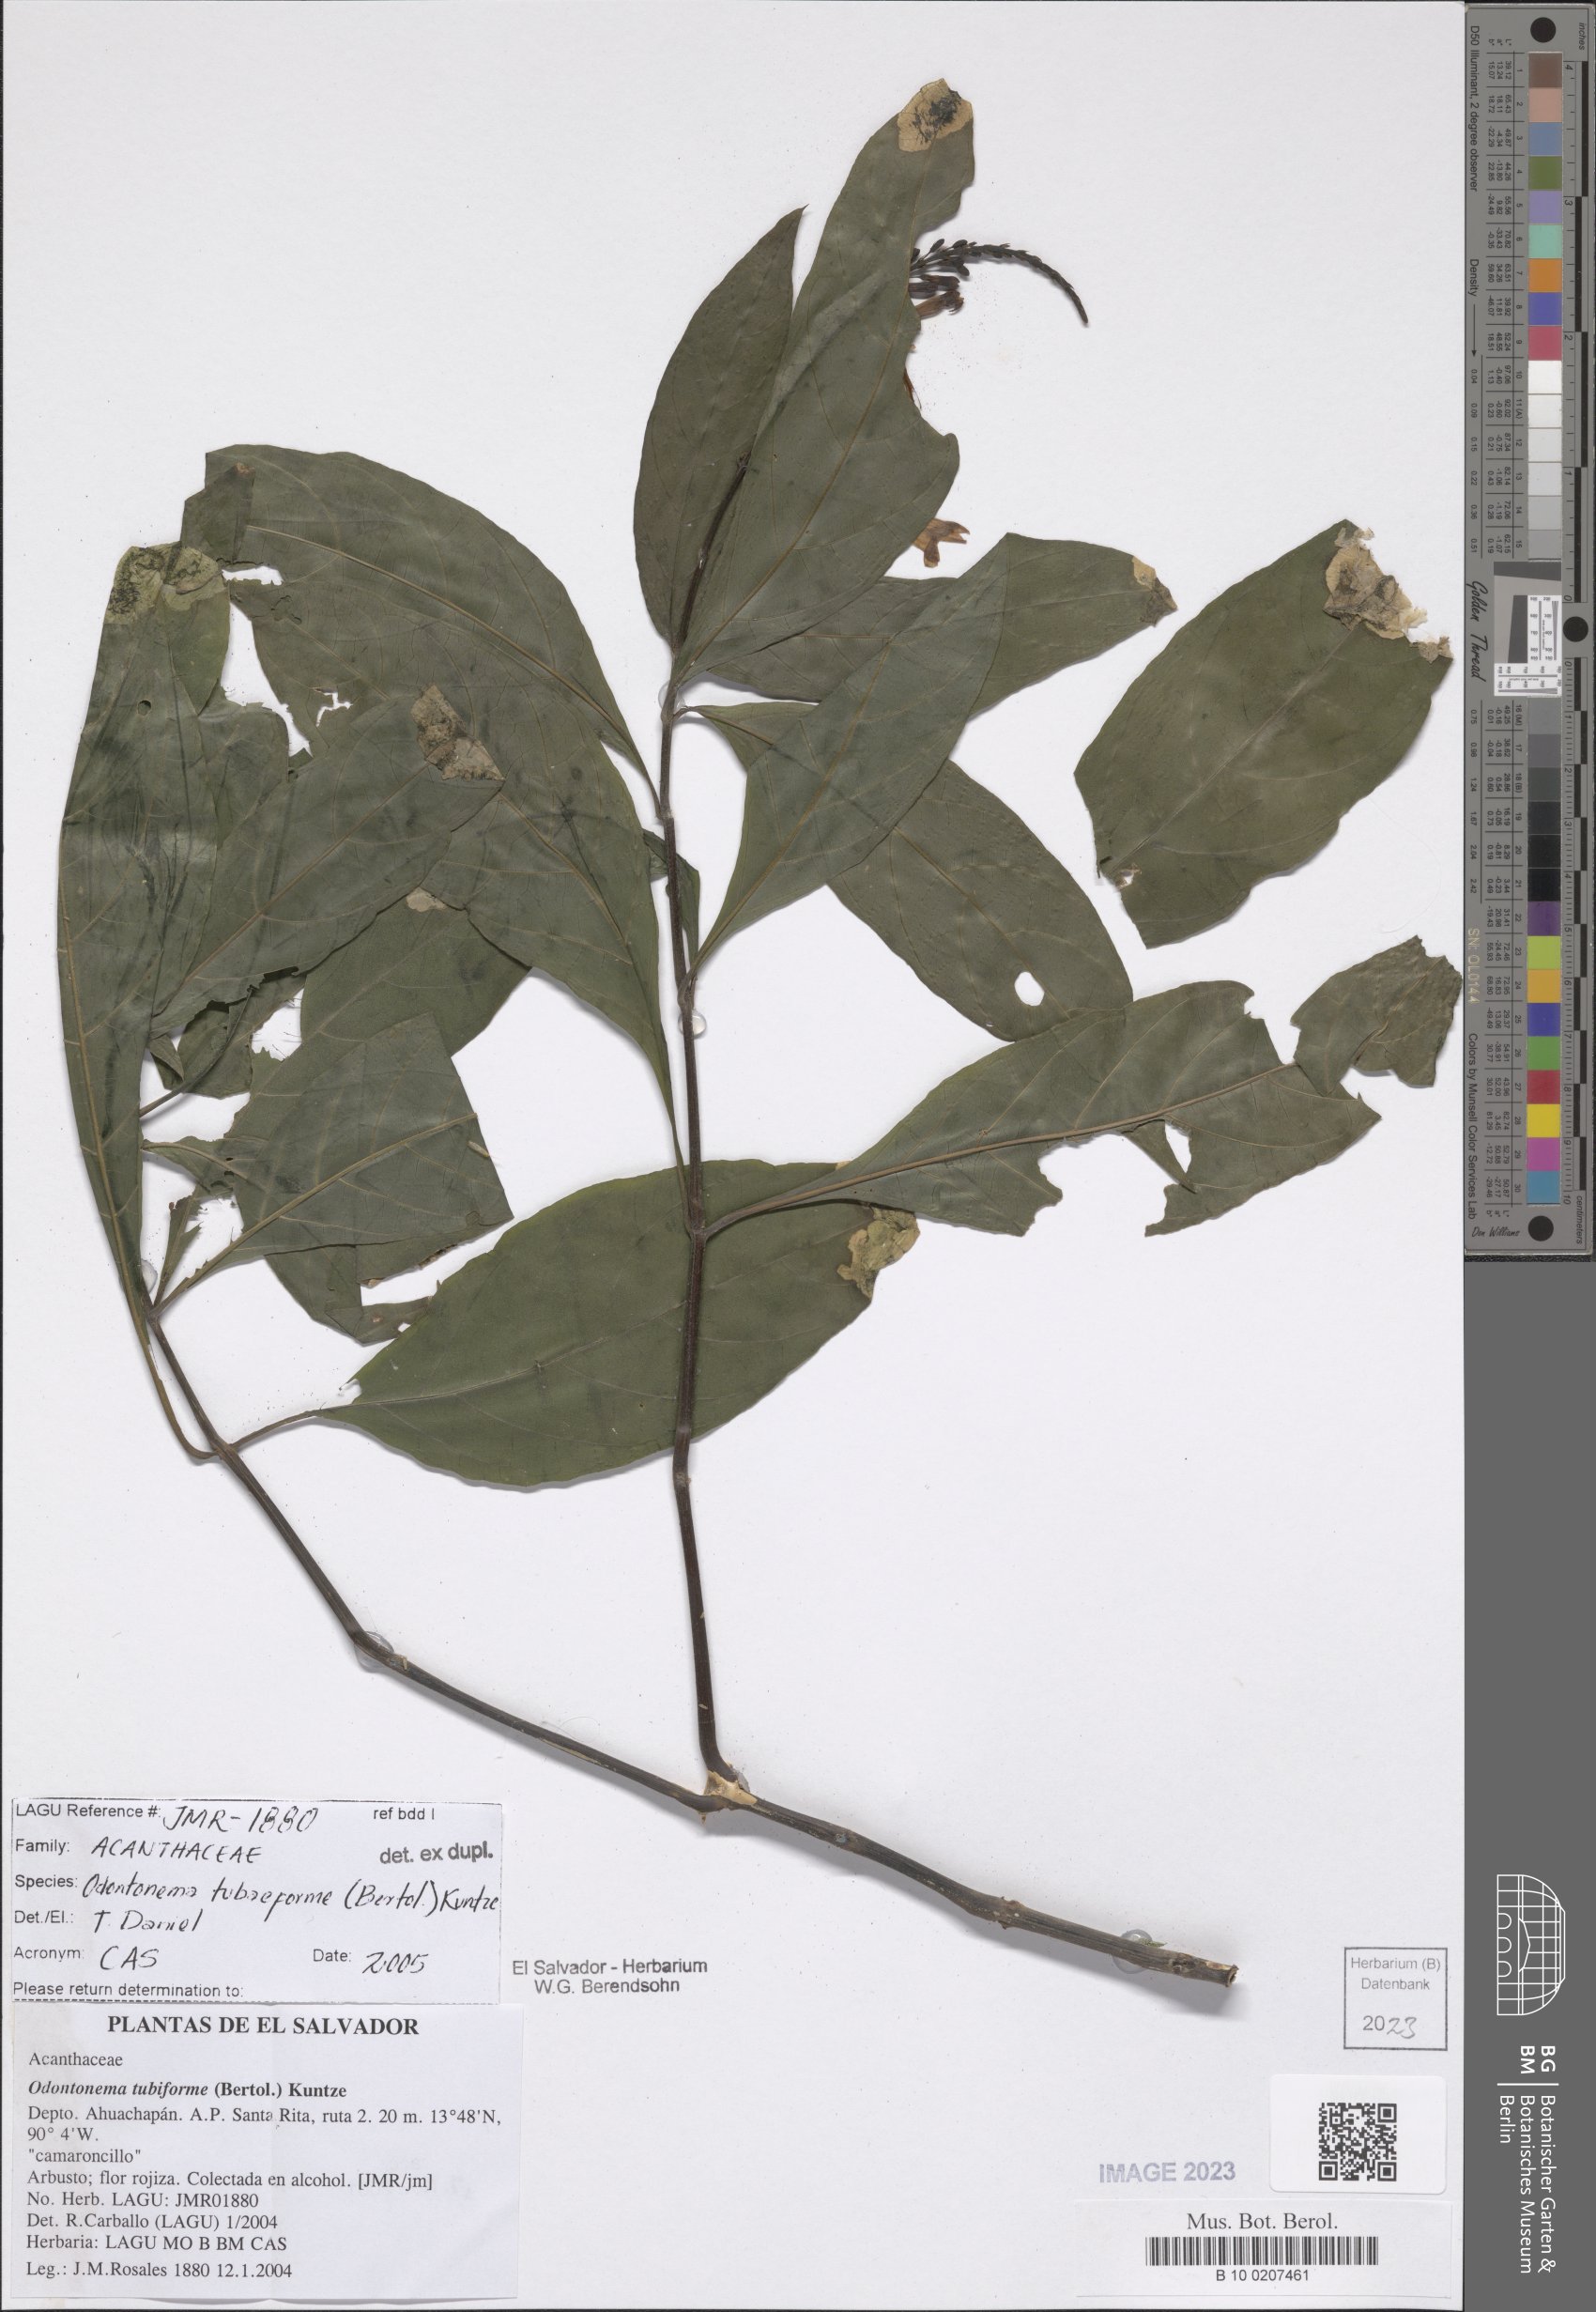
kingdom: Plantae
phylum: Tracheophyta
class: Magnoliopsida
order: Lamiales
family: Acanthaceae
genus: Odontonema
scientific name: Odontonema tubaeforme
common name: Firespike
